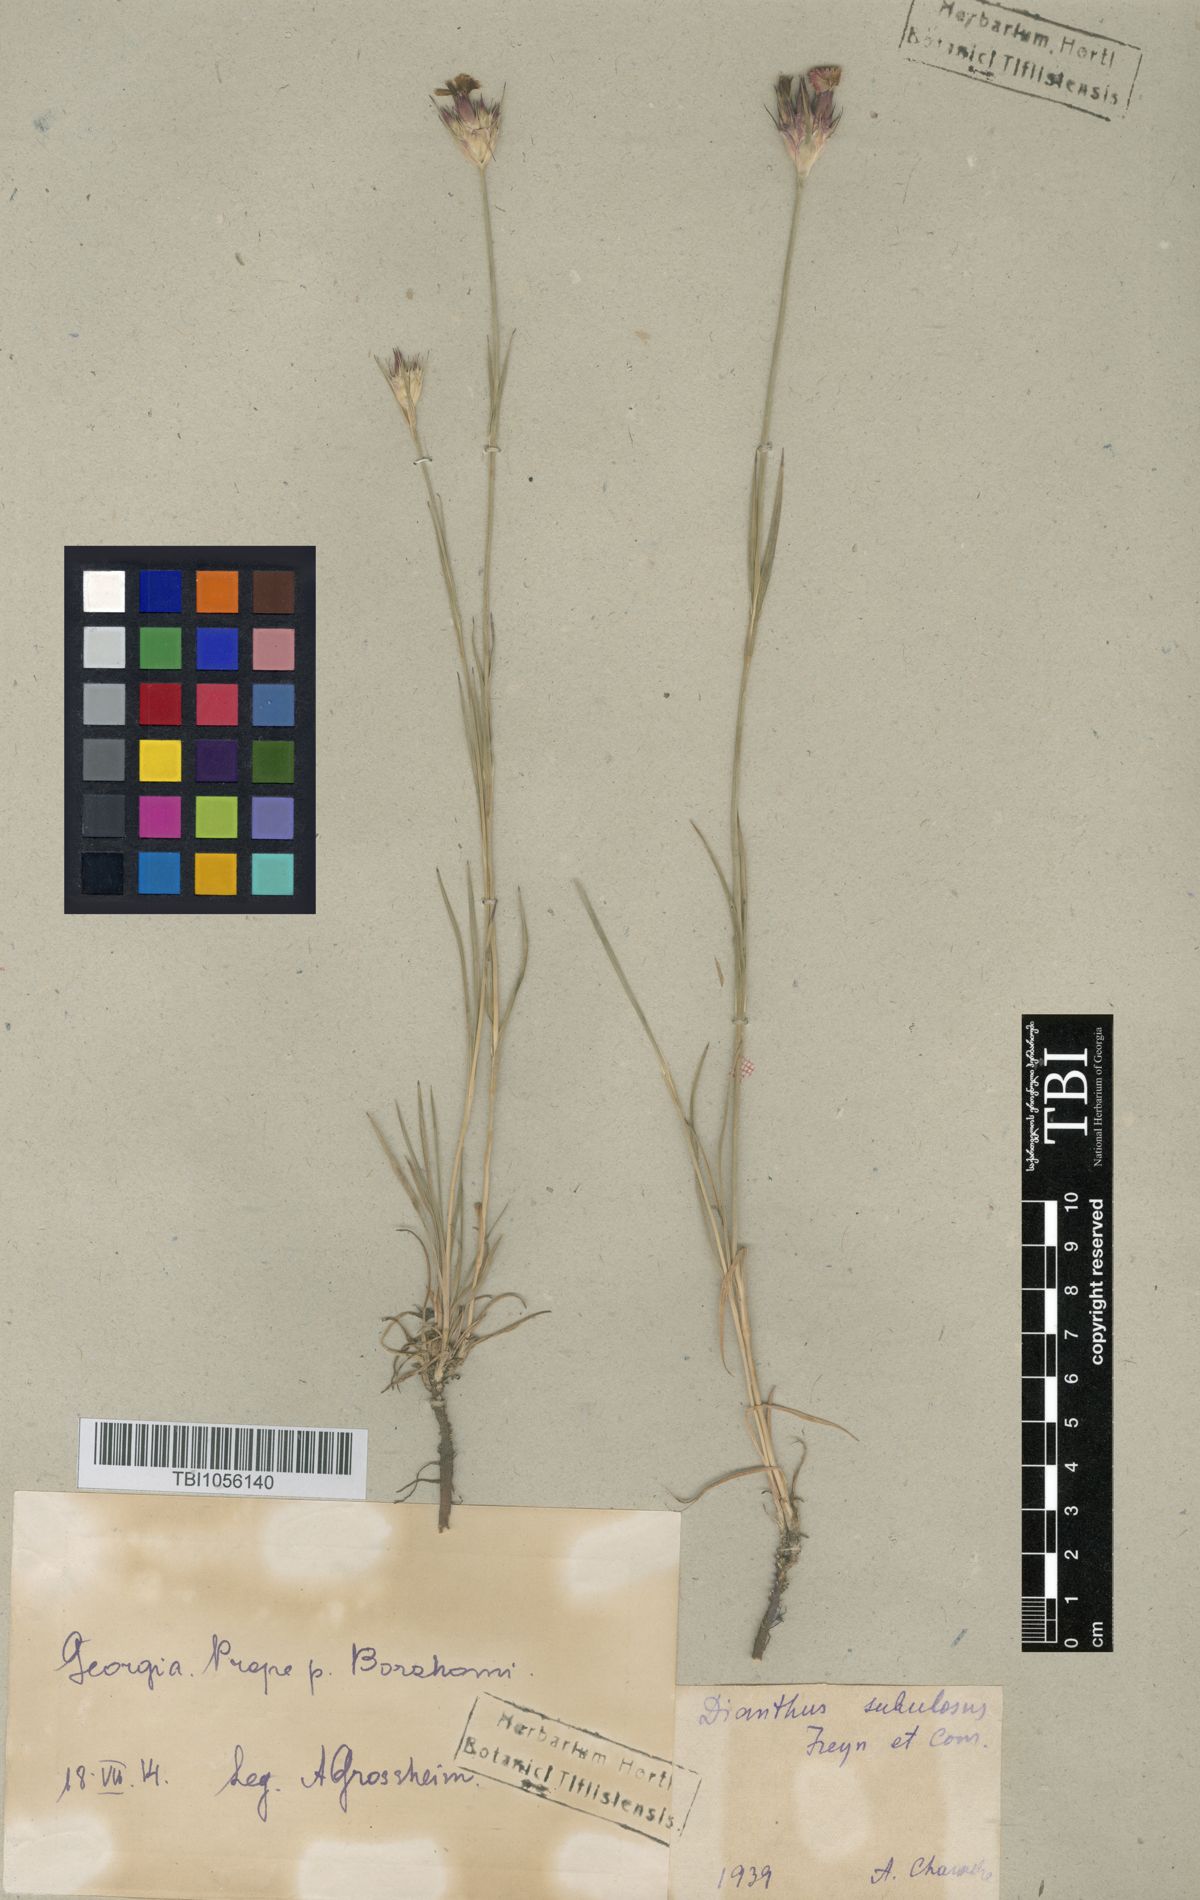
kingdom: Plantae
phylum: Tracheophyta
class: Magnoliopsida
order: Caryophyllales
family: Caryophyllaceae
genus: Dianthus
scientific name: Dianthus subulosus
